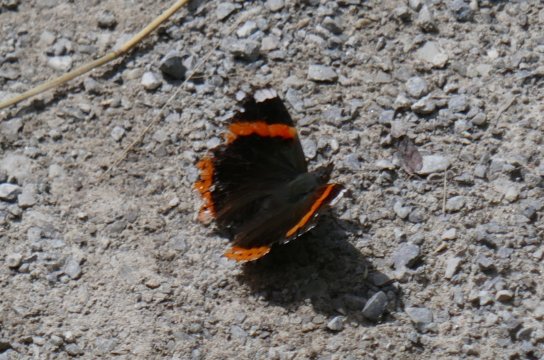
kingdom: Animalia
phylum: Arthropoda
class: Insecta
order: Lepidoptera
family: Nymphalidae
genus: Vanessa
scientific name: Vanessa atalanta
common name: Red Admiral
